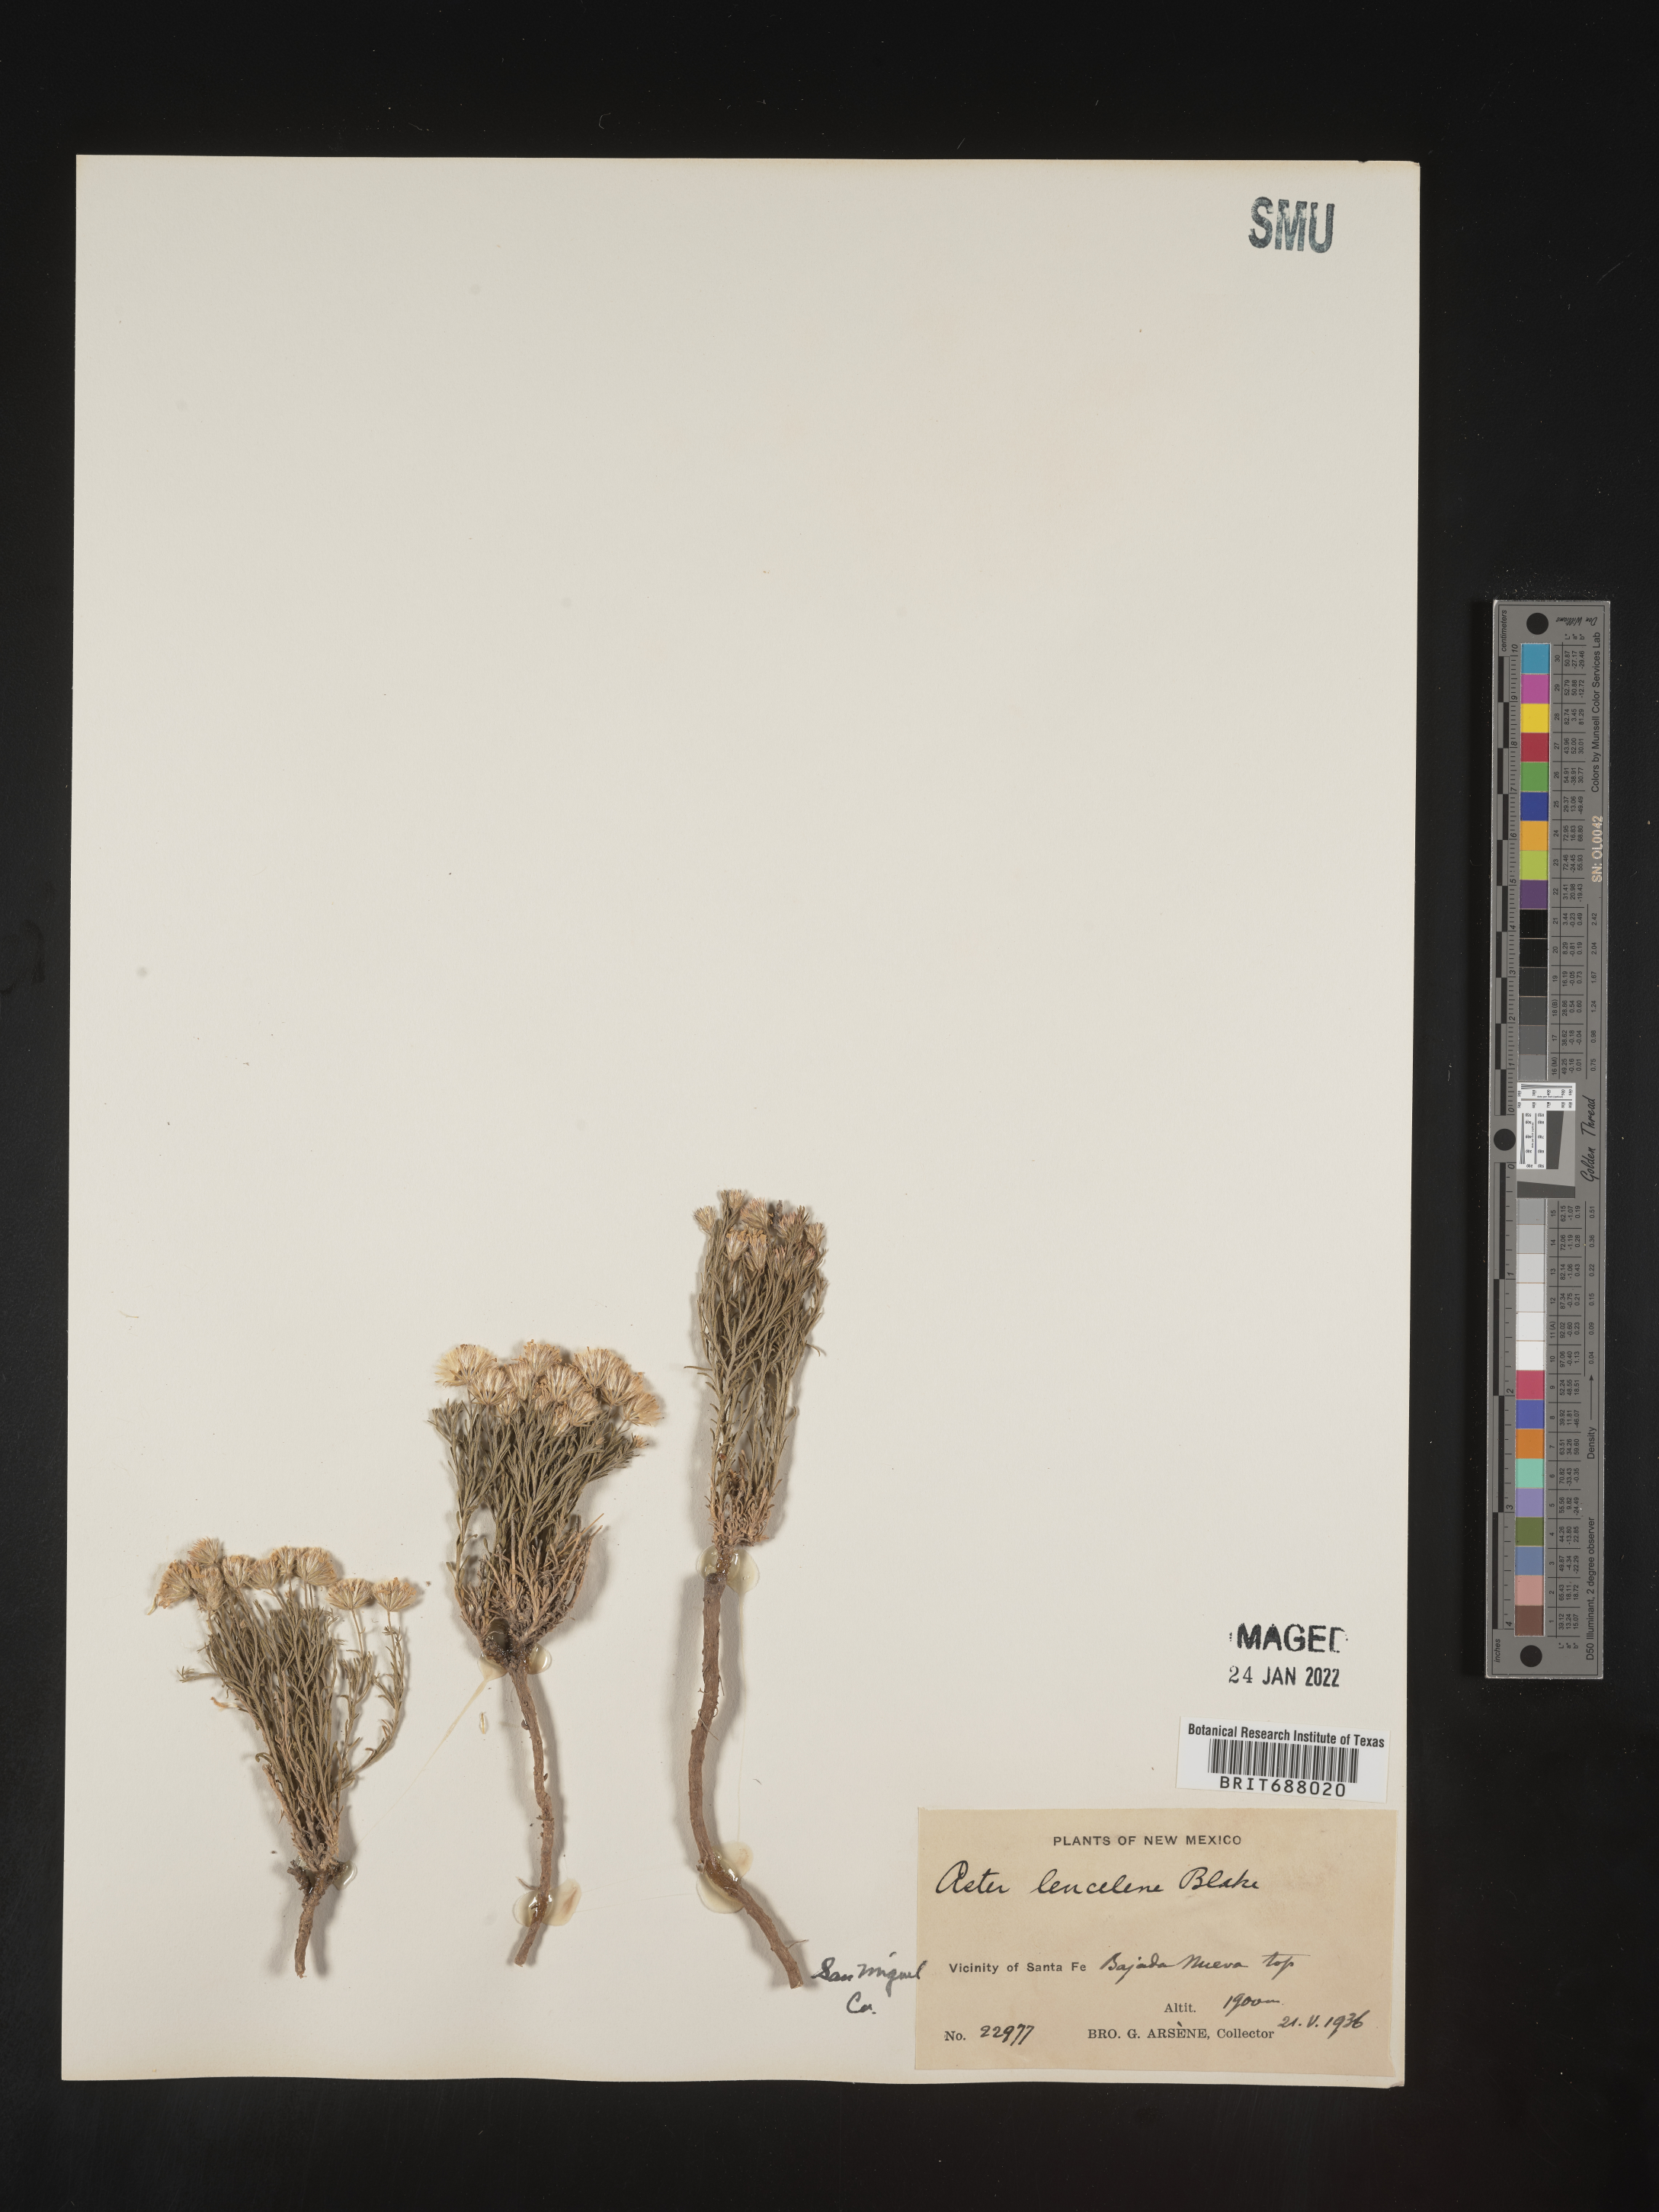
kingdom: Plantae
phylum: Tracheophyta
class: Magnoliopsida
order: Asterales
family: Asteraceae
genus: Chaetopappa
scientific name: Chaetopappa ericoides
